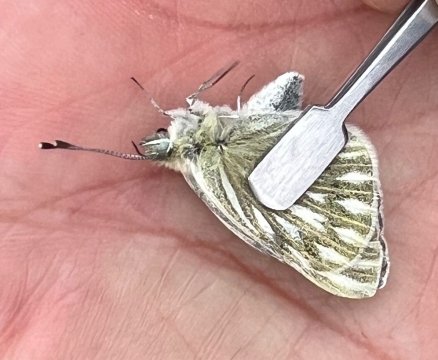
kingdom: Animalia
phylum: Arthropoda
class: Insecta
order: Lepidoptera
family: Pieridae
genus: Pontia
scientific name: Pontia occidentalis
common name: Western White
